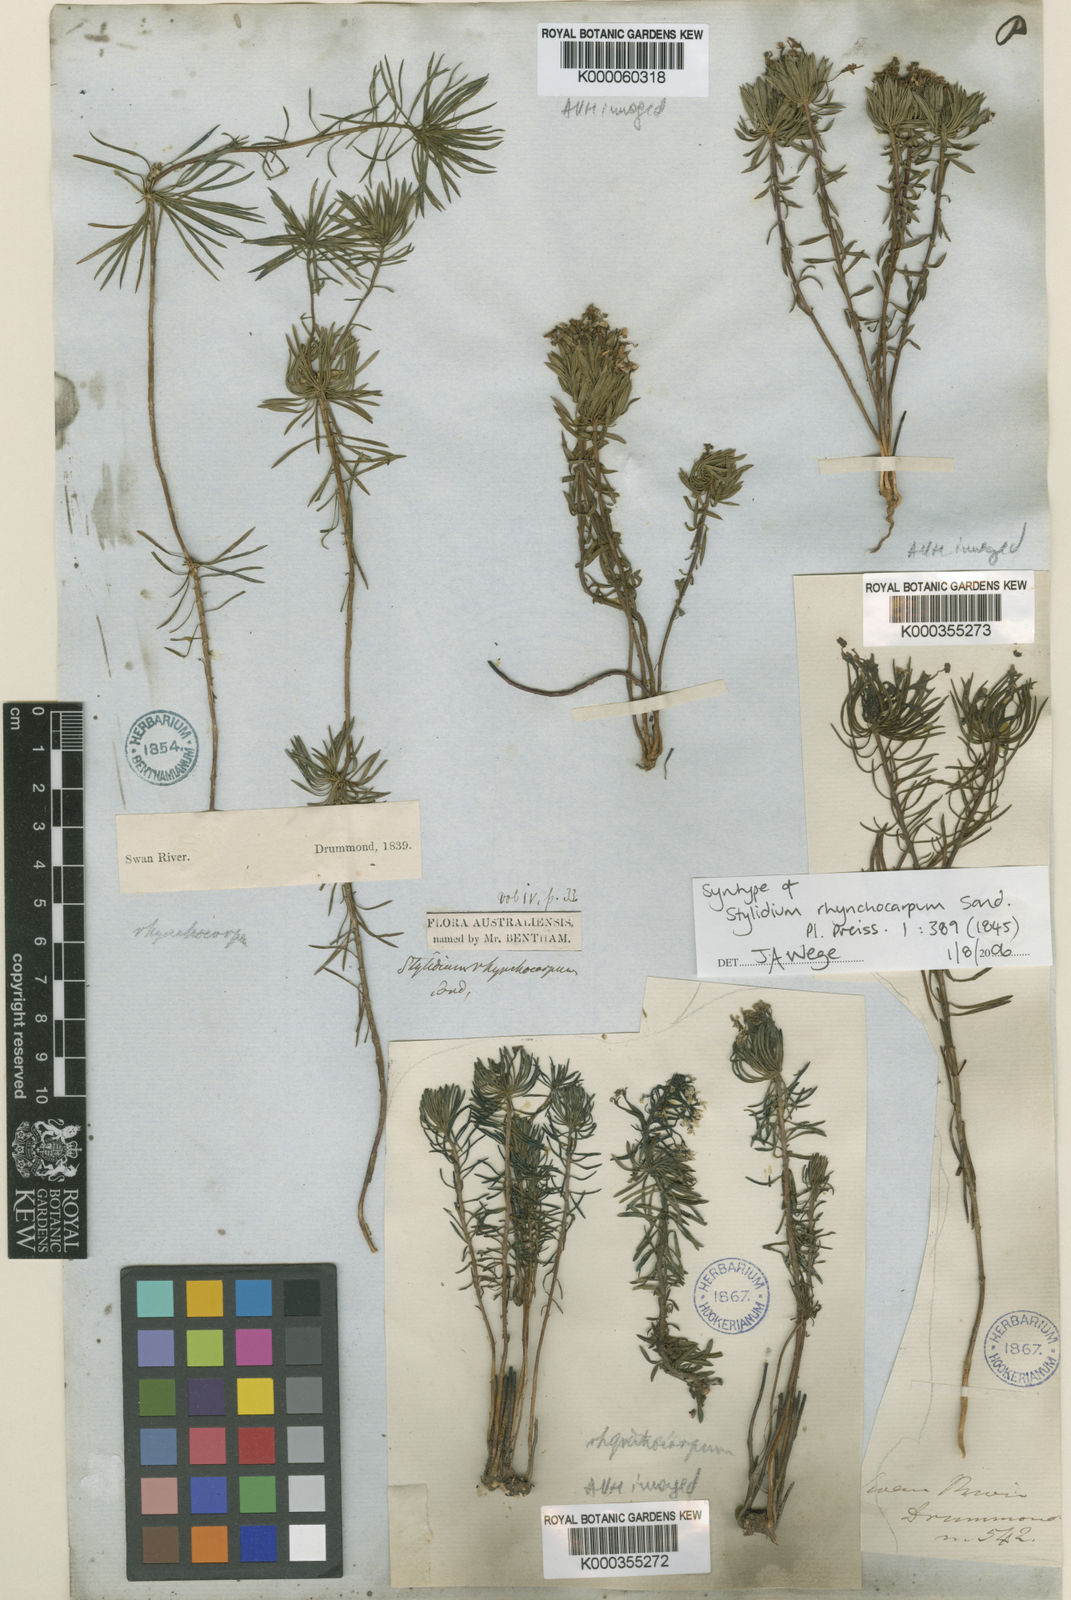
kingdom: Plantae
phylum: Tracheophyta
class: Magnoliopsida
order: Asterales
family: Stylidiaceae
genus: Stylidium
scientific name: Stylidium rhynchocarpum
